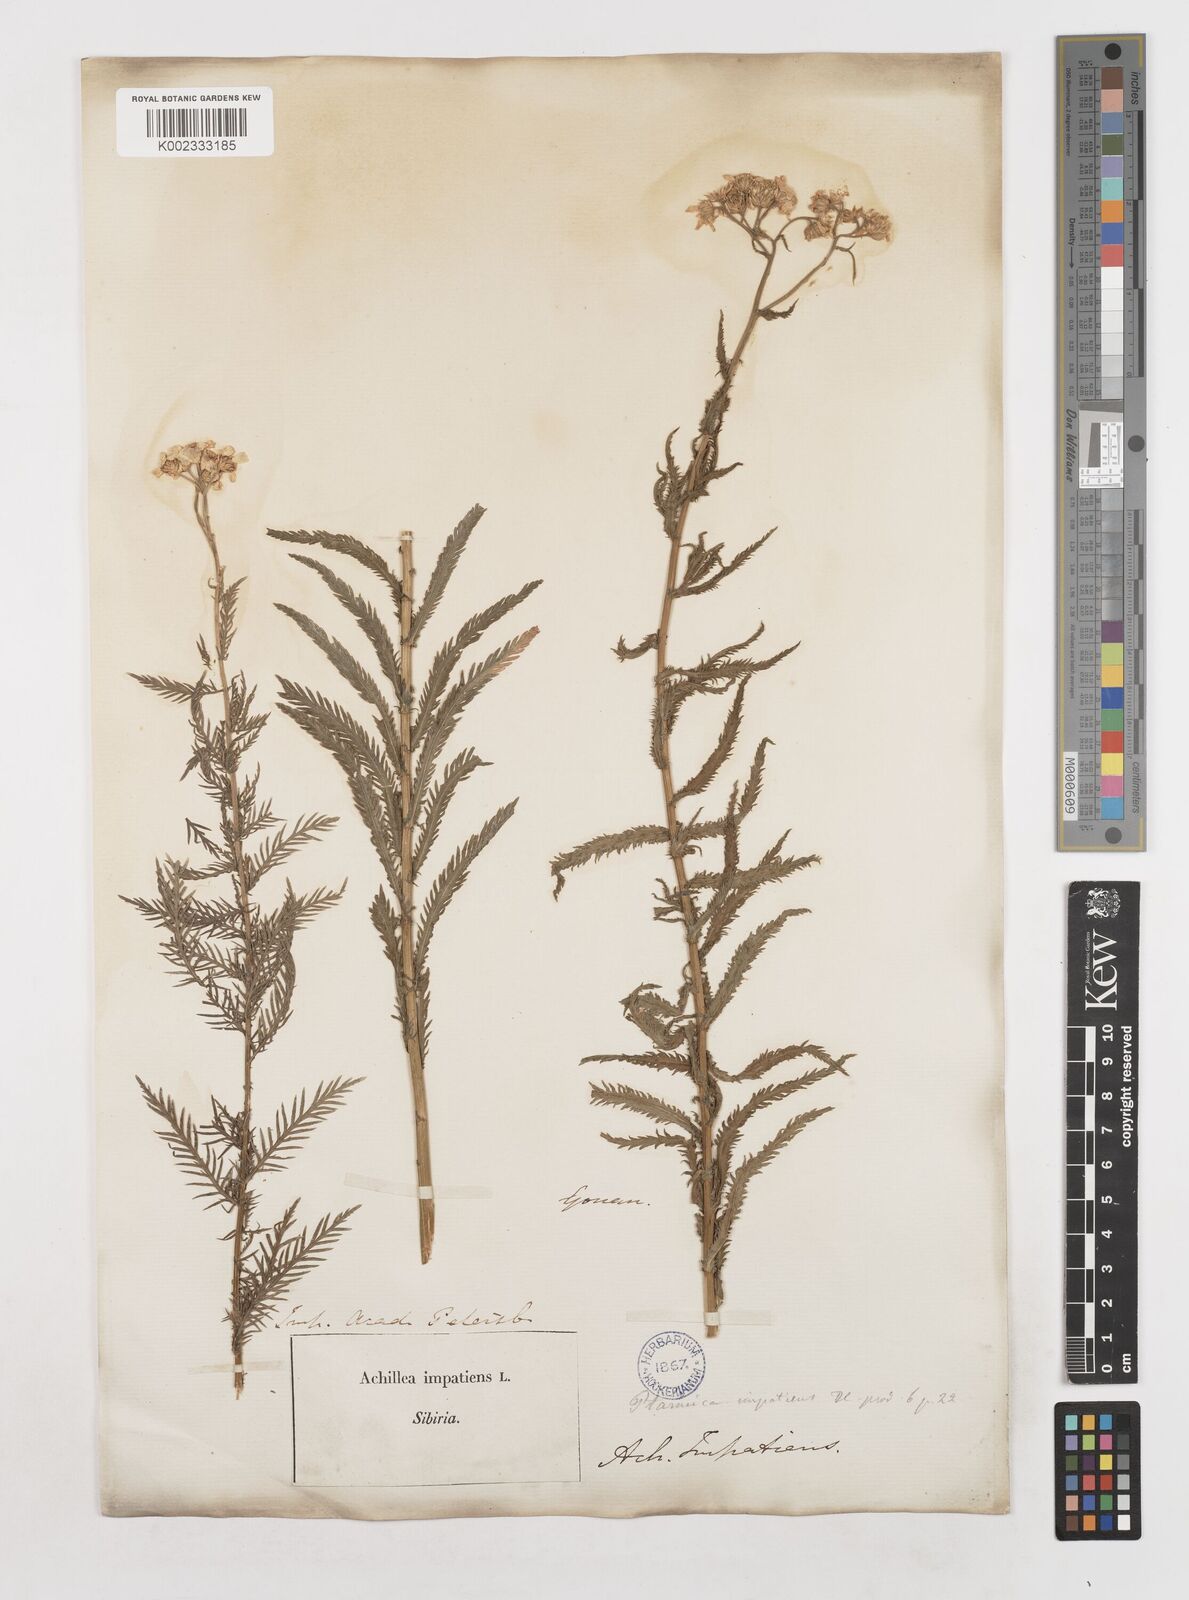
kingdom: Plantae
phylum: Tracheophyta
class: Magnoliopsida
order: Asterales
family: Asteraceae
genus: Achillea
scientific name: Achillea impatiens
